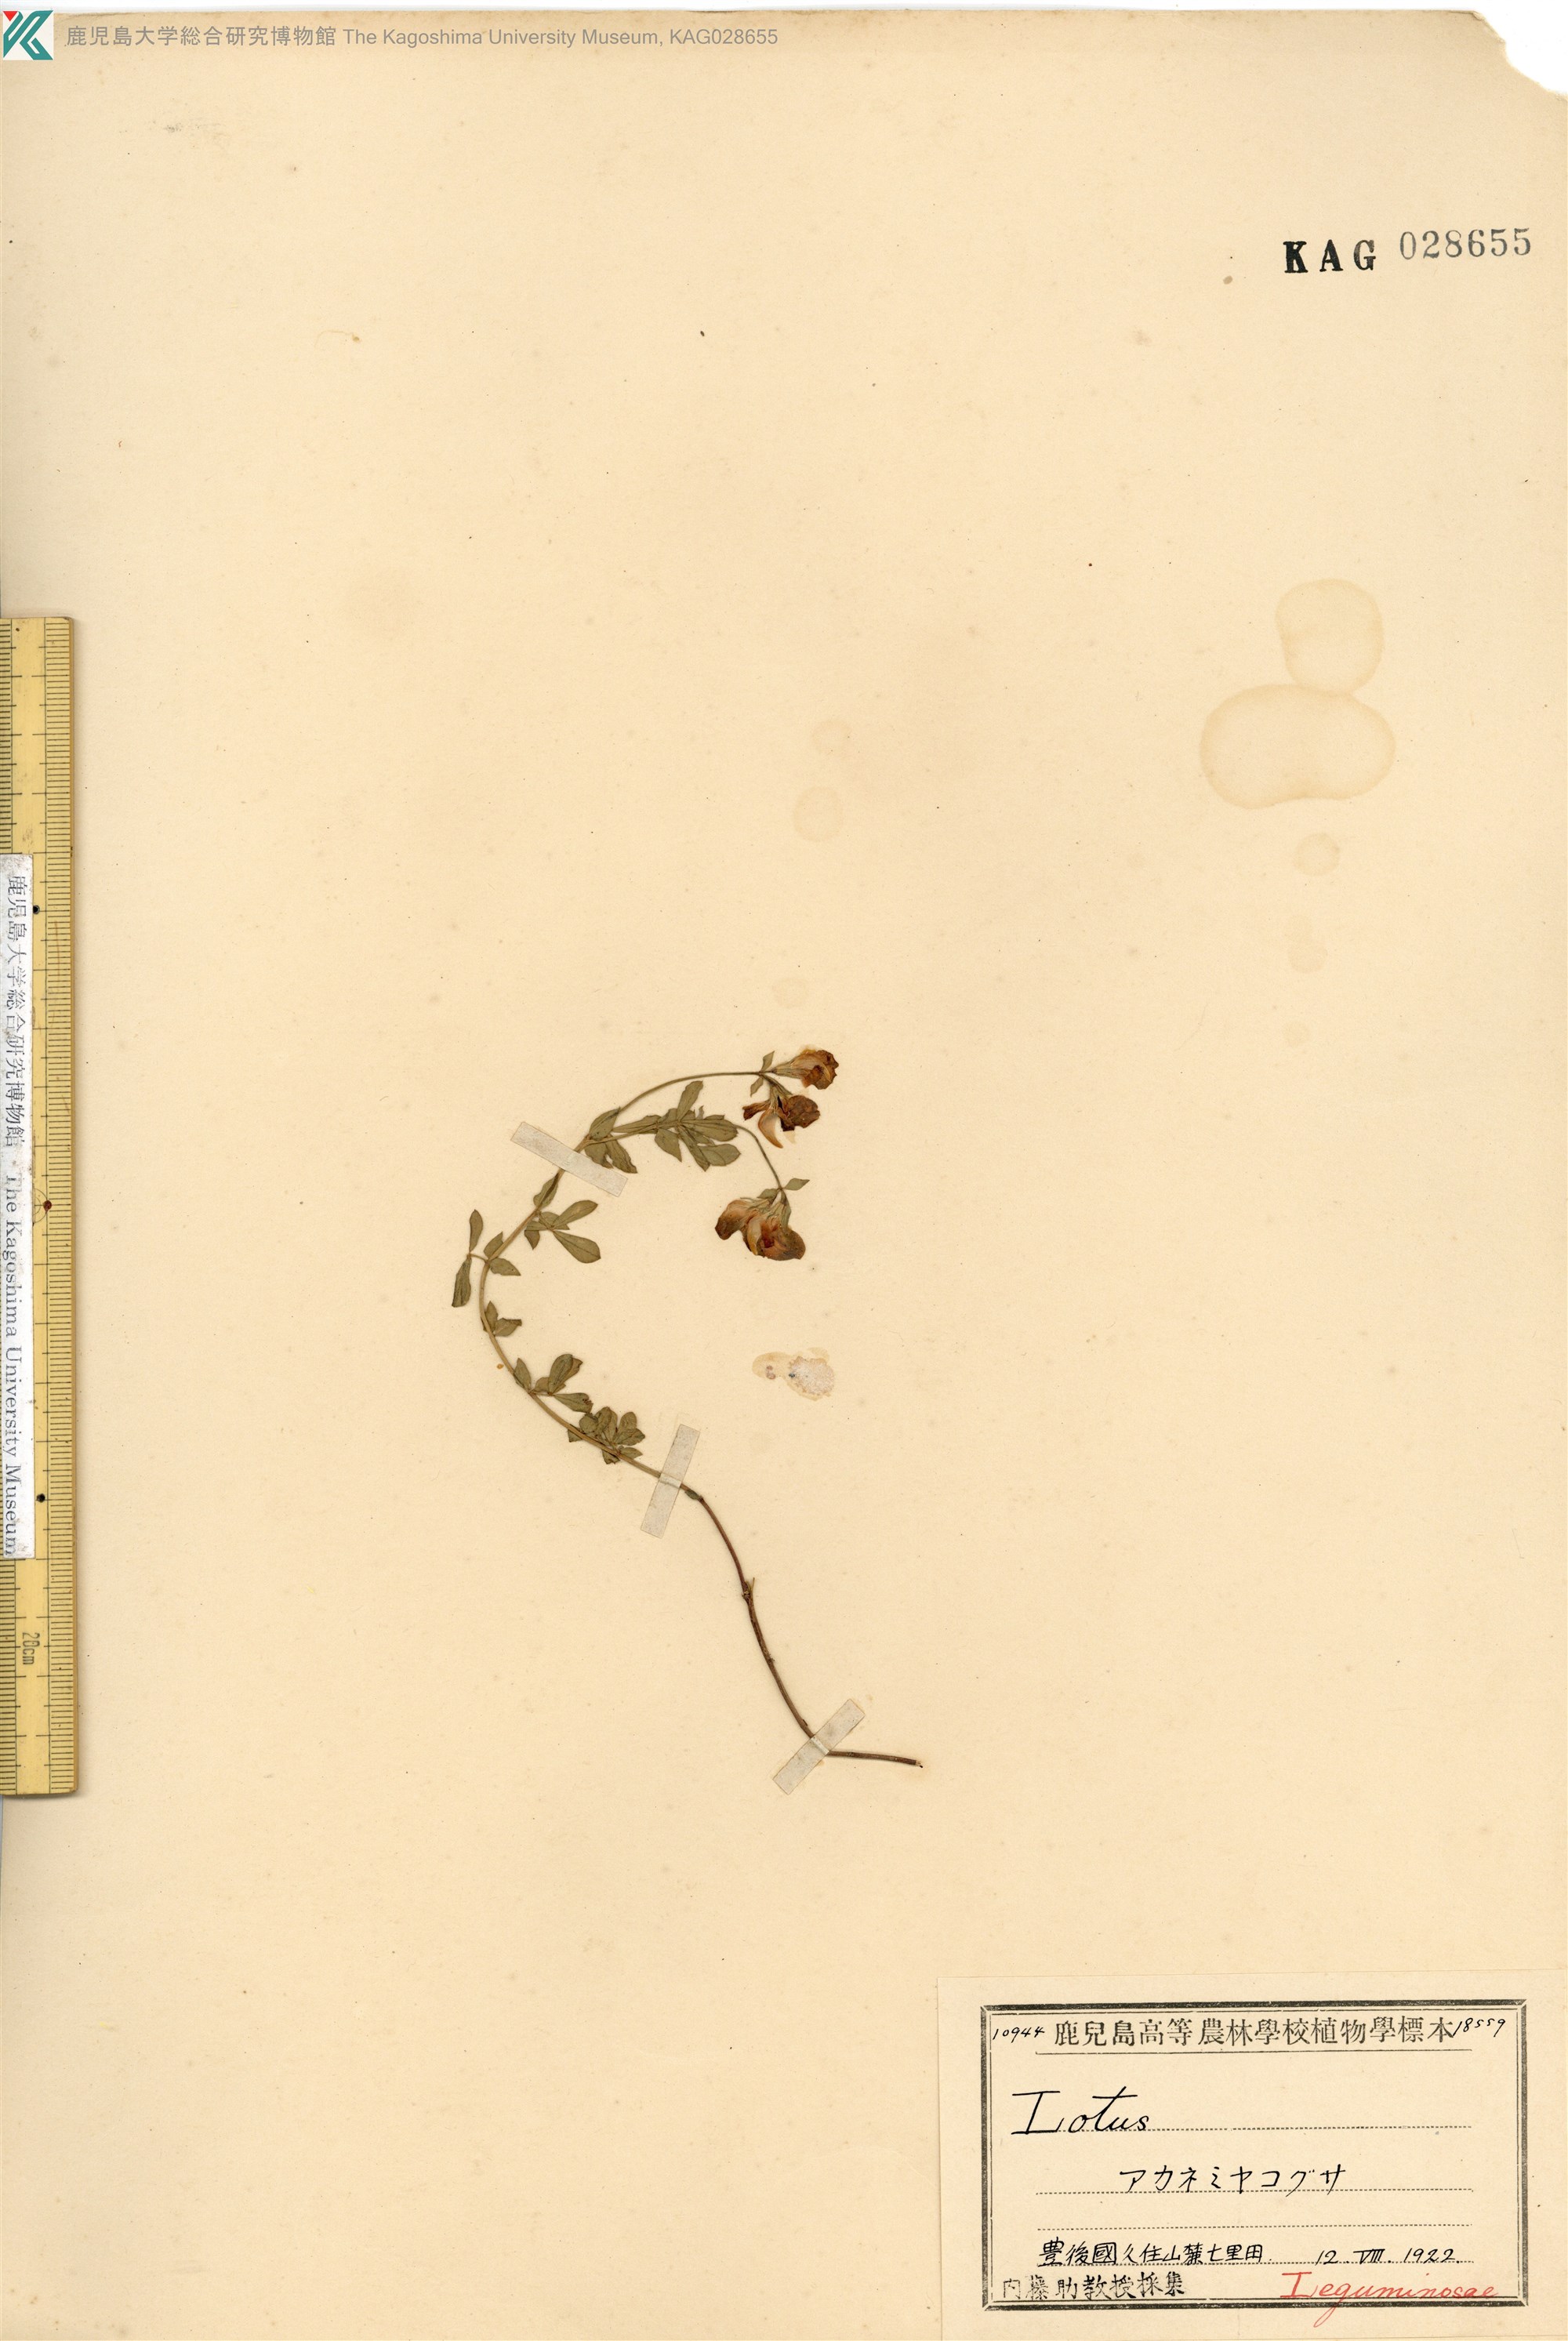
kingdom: Plantae
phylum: Tracheophyta
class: Magnoliopsida
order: Fabales
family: Fabaceae
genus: Lotus
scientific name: Lotus japonicus
